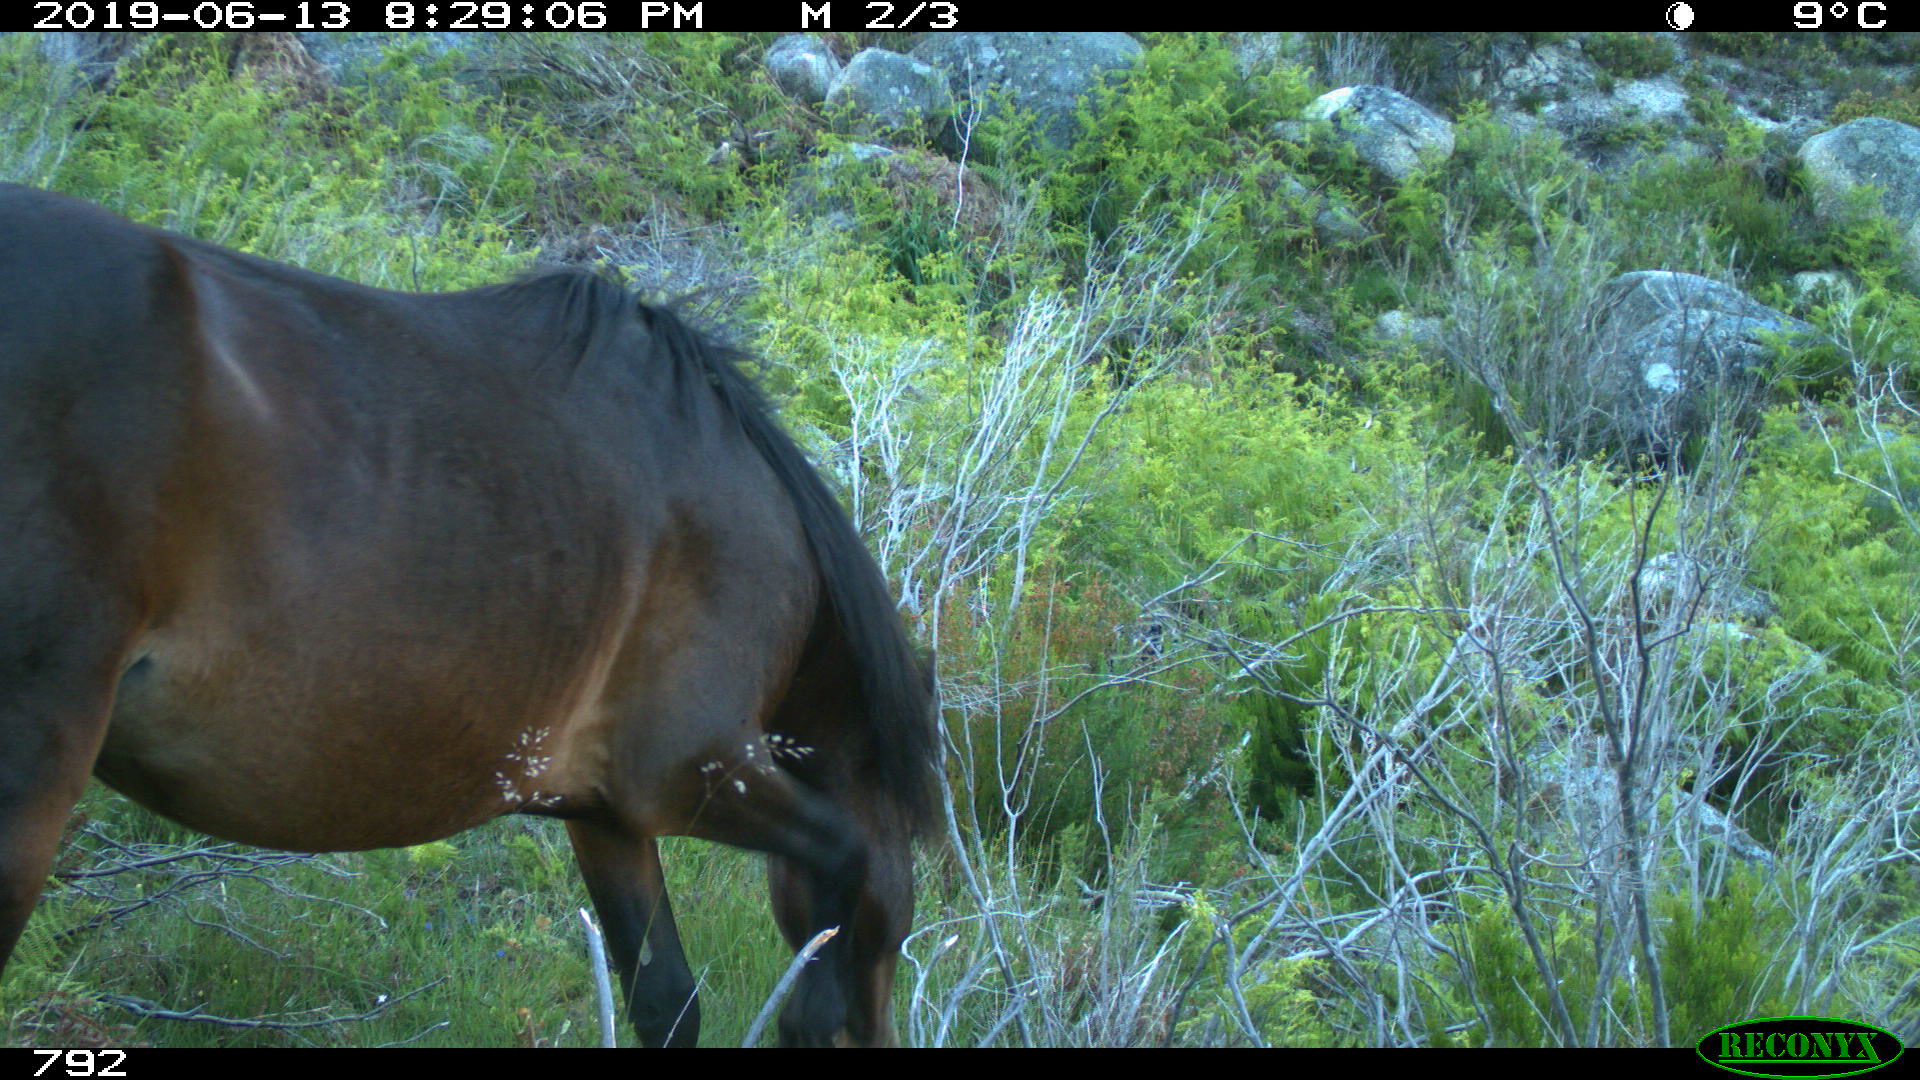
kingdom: Animalia
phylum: Chordata
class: Mammalia
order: Perissodactyla
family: Equidae
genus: Equus
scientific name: Equus caballus
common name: Horse
